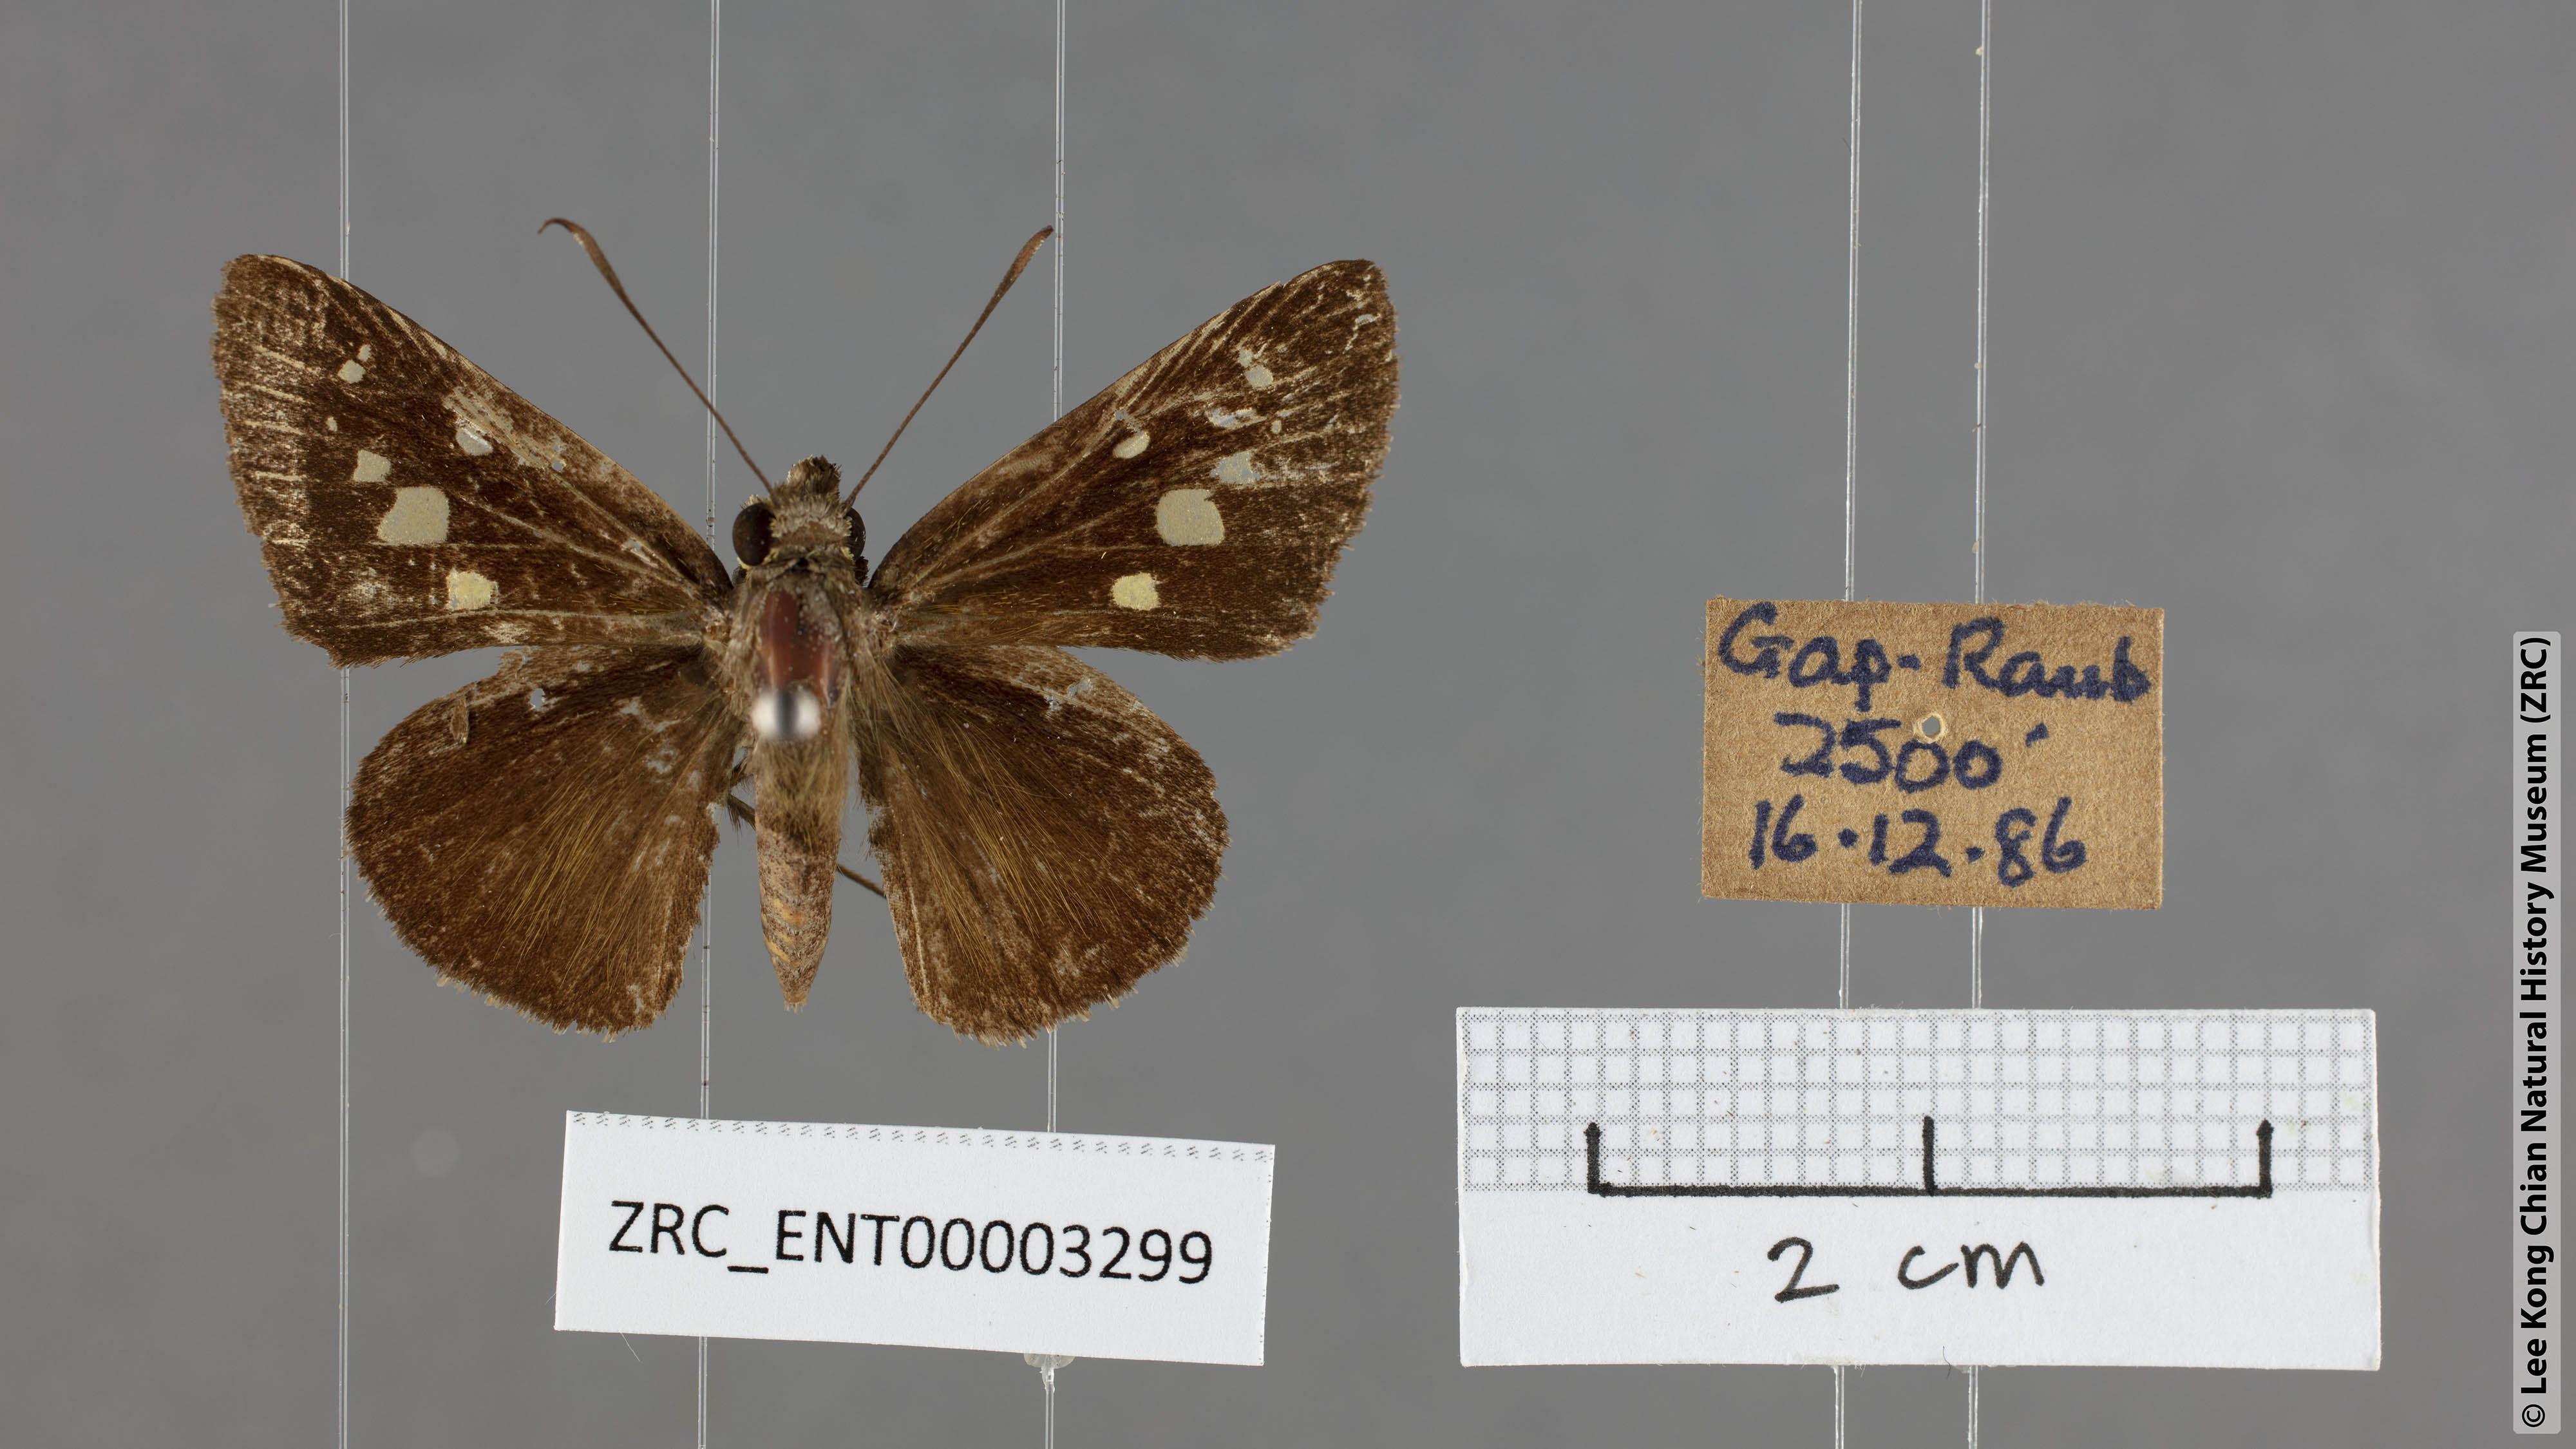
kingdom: Animalia
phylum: Arthropoda
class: Insecta
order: Lepidoptera
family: Hesperiidae
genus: Isma
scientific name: Isma
